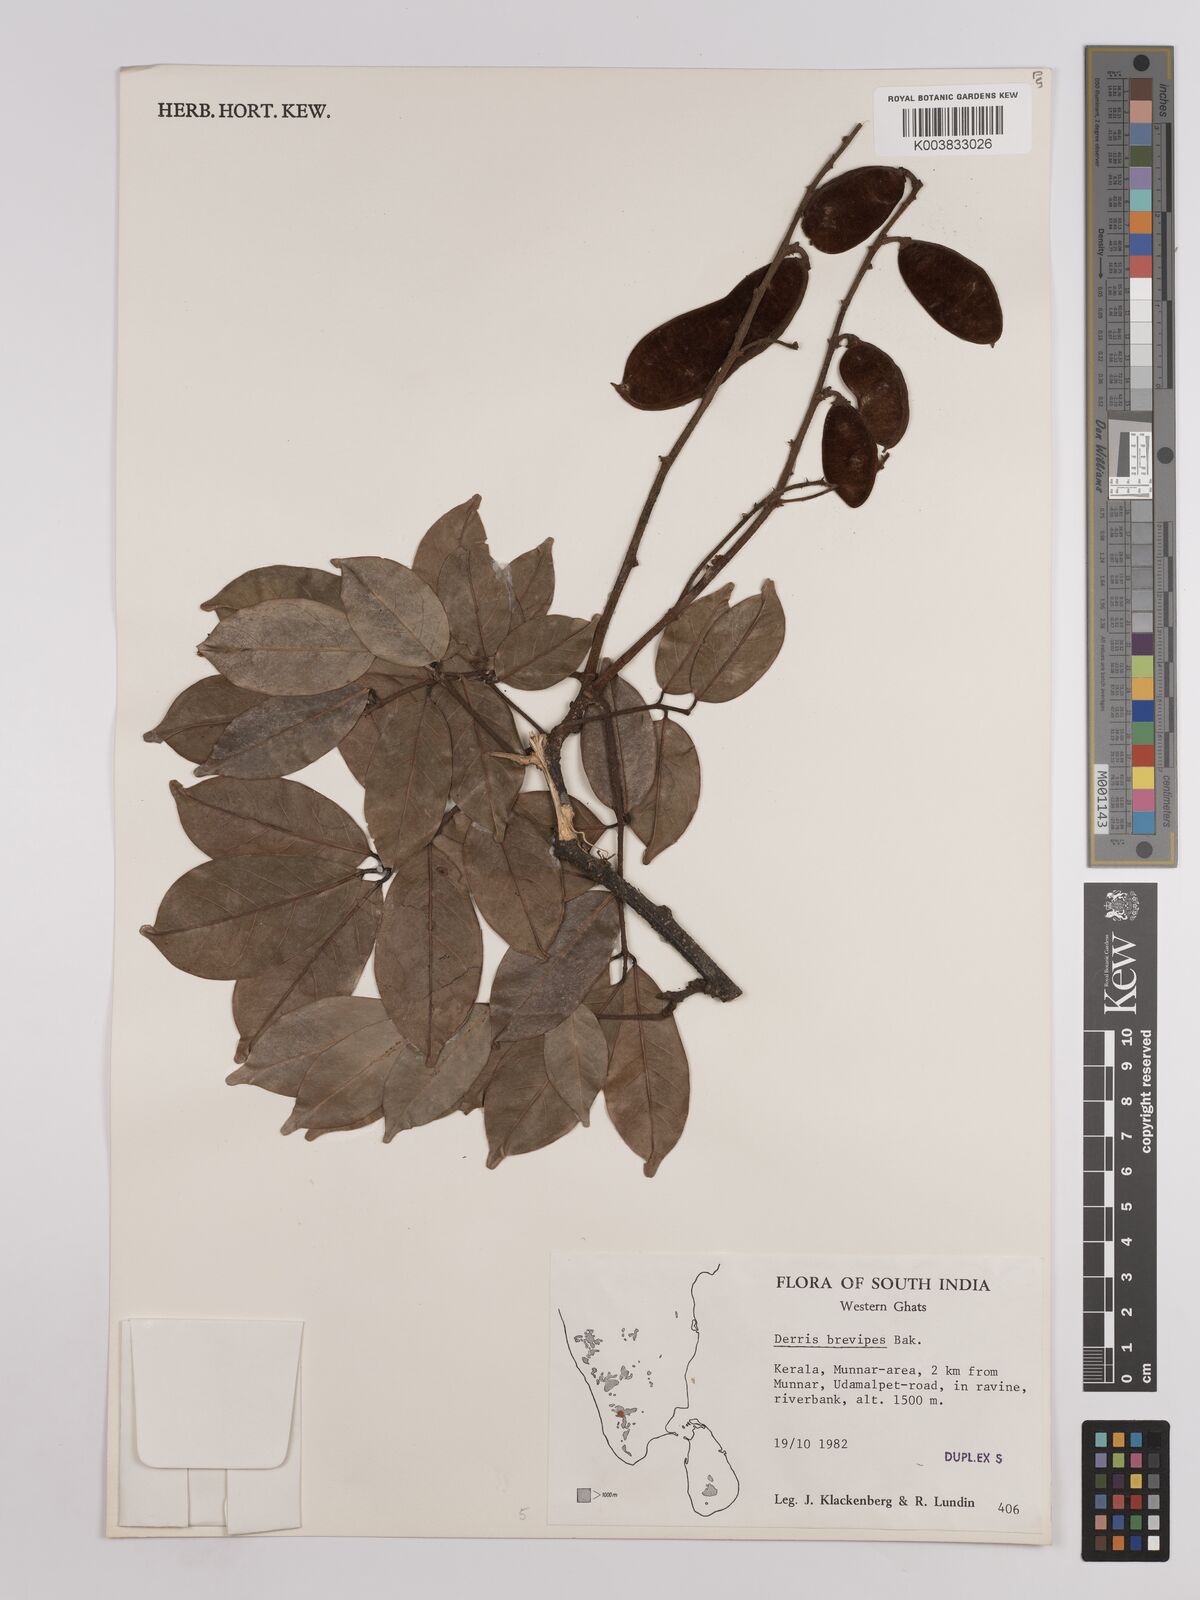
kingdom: Plantae
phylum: Tracheophyta
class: Magnoliopsida
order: Fabales
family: Fabaceae
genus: Derris
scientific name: Derris brevipes
